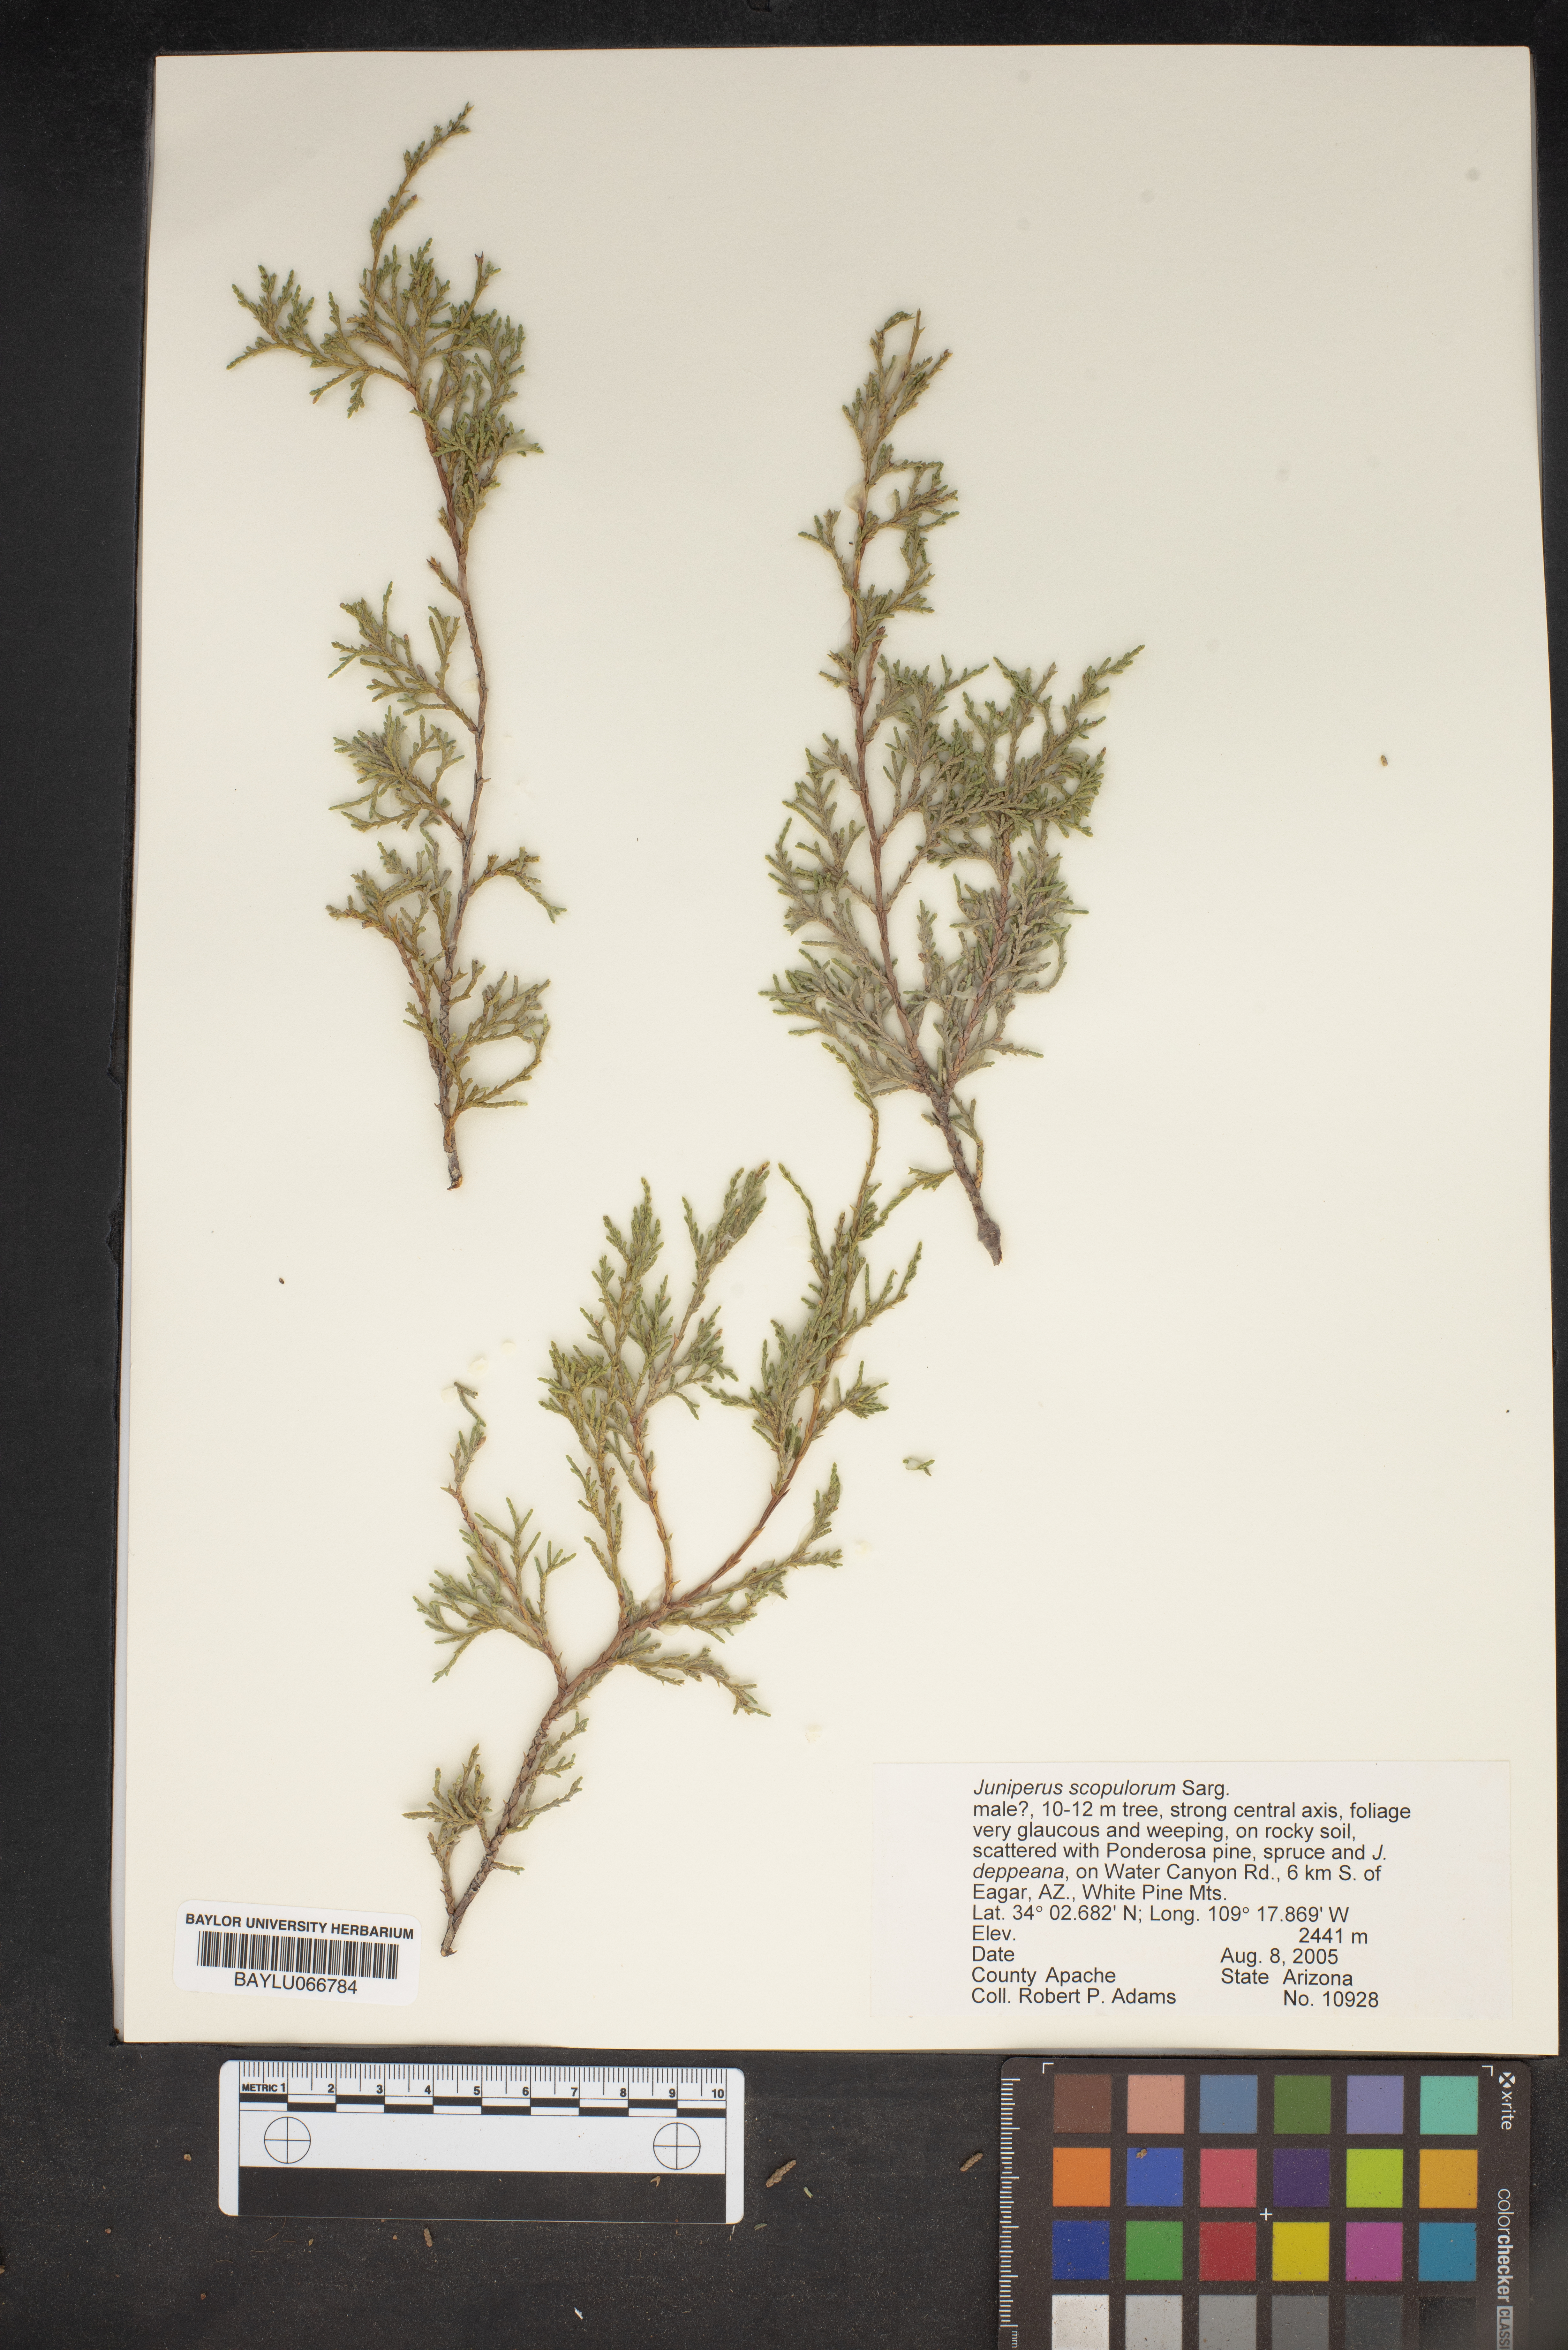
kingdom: Plantae
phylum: Tracheophyta
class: Pinopsida
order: Pinales
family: Cupressaceae
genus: Juniperus
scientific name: Juniperus scopulorum
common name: Rocky mountain juniper
